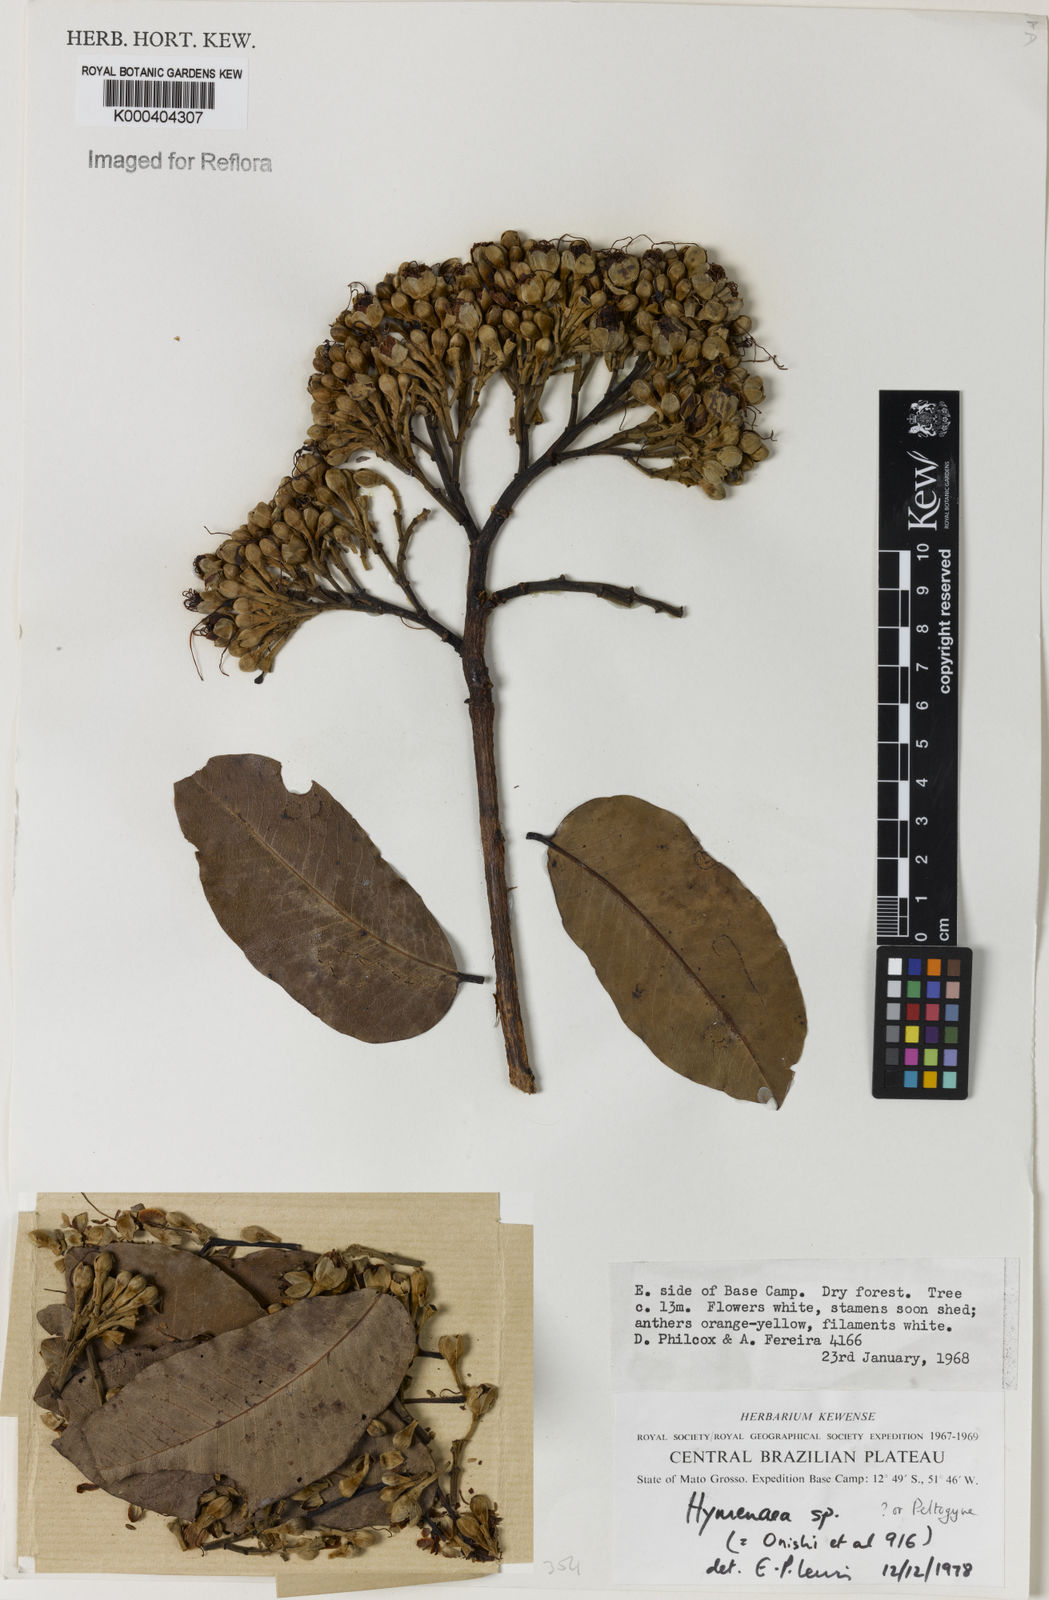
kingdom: Plantae
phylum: Tracheophyta
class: Magnoliopsida
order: Fabales
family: Fabaceae
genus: Hymenaea
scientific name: Hymenaea
